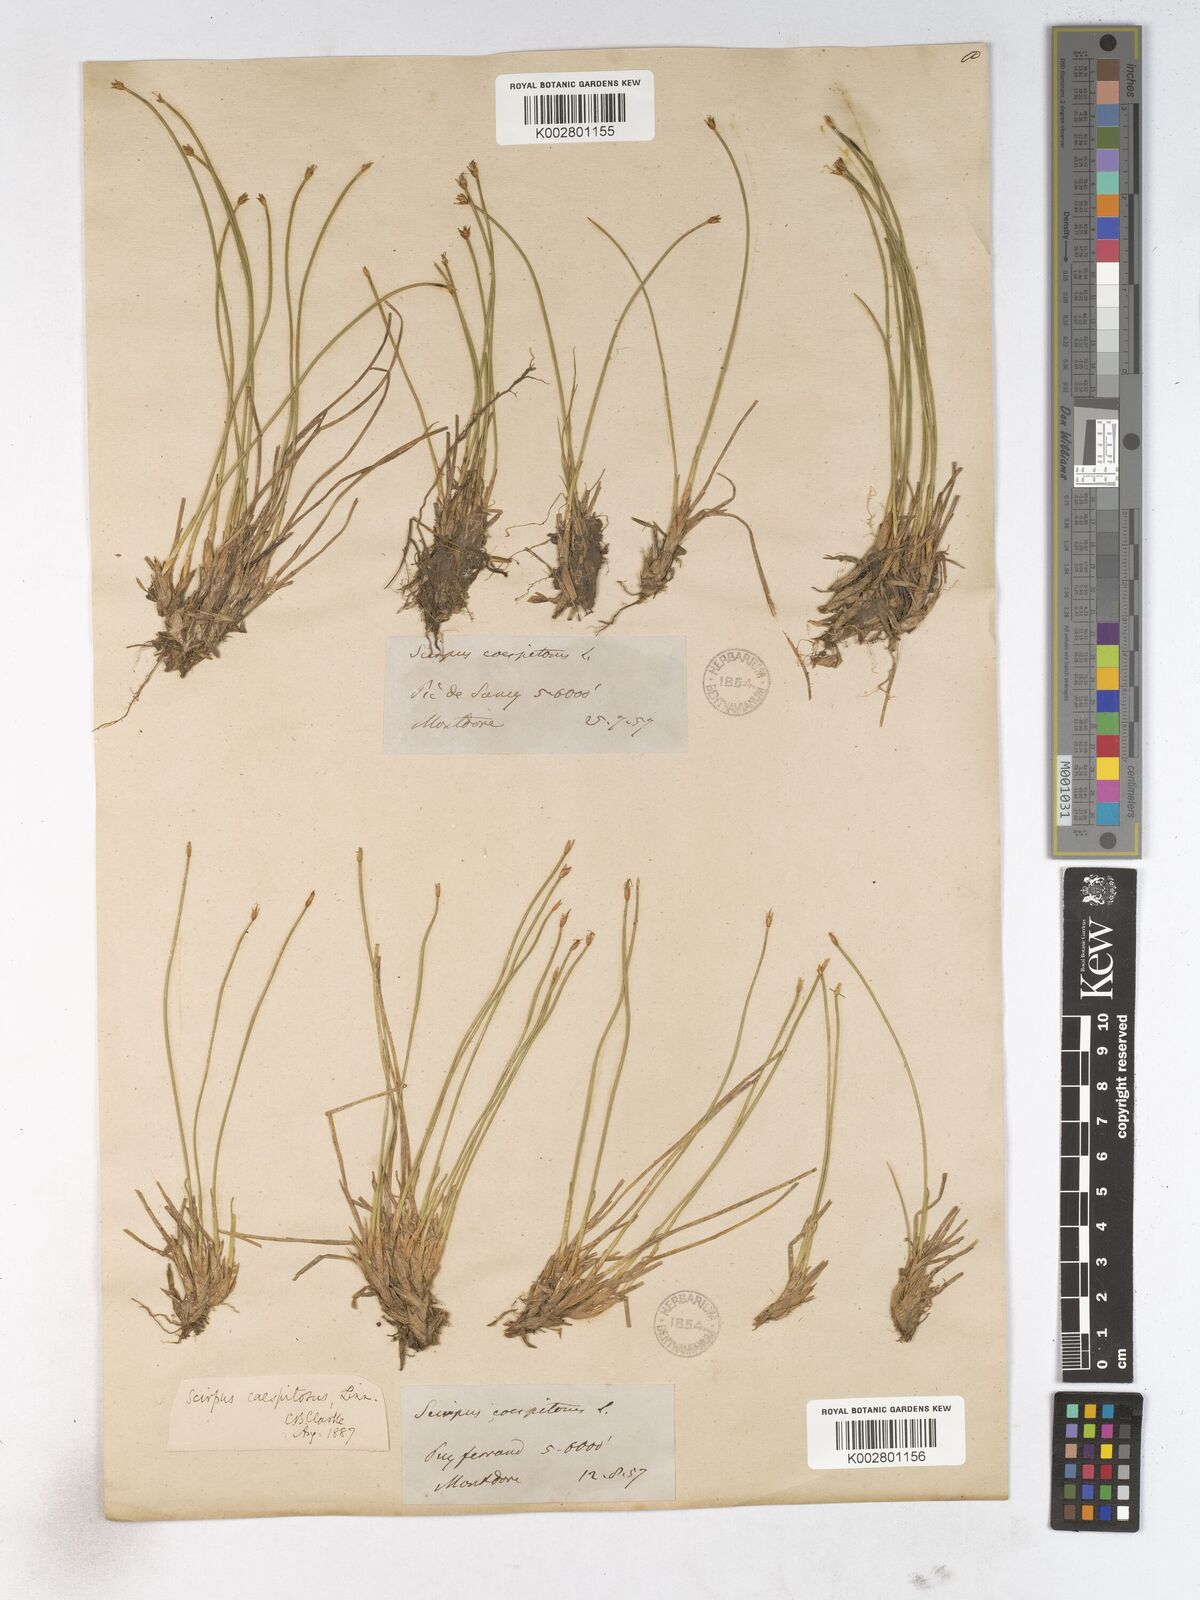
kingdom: Plantae
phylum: Tracheophyta
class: Liliopsida
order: Poales
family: Cyperaceae
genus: Trichophorum
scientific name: Trichophorum cespitosum
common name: Cespitose bulrush
